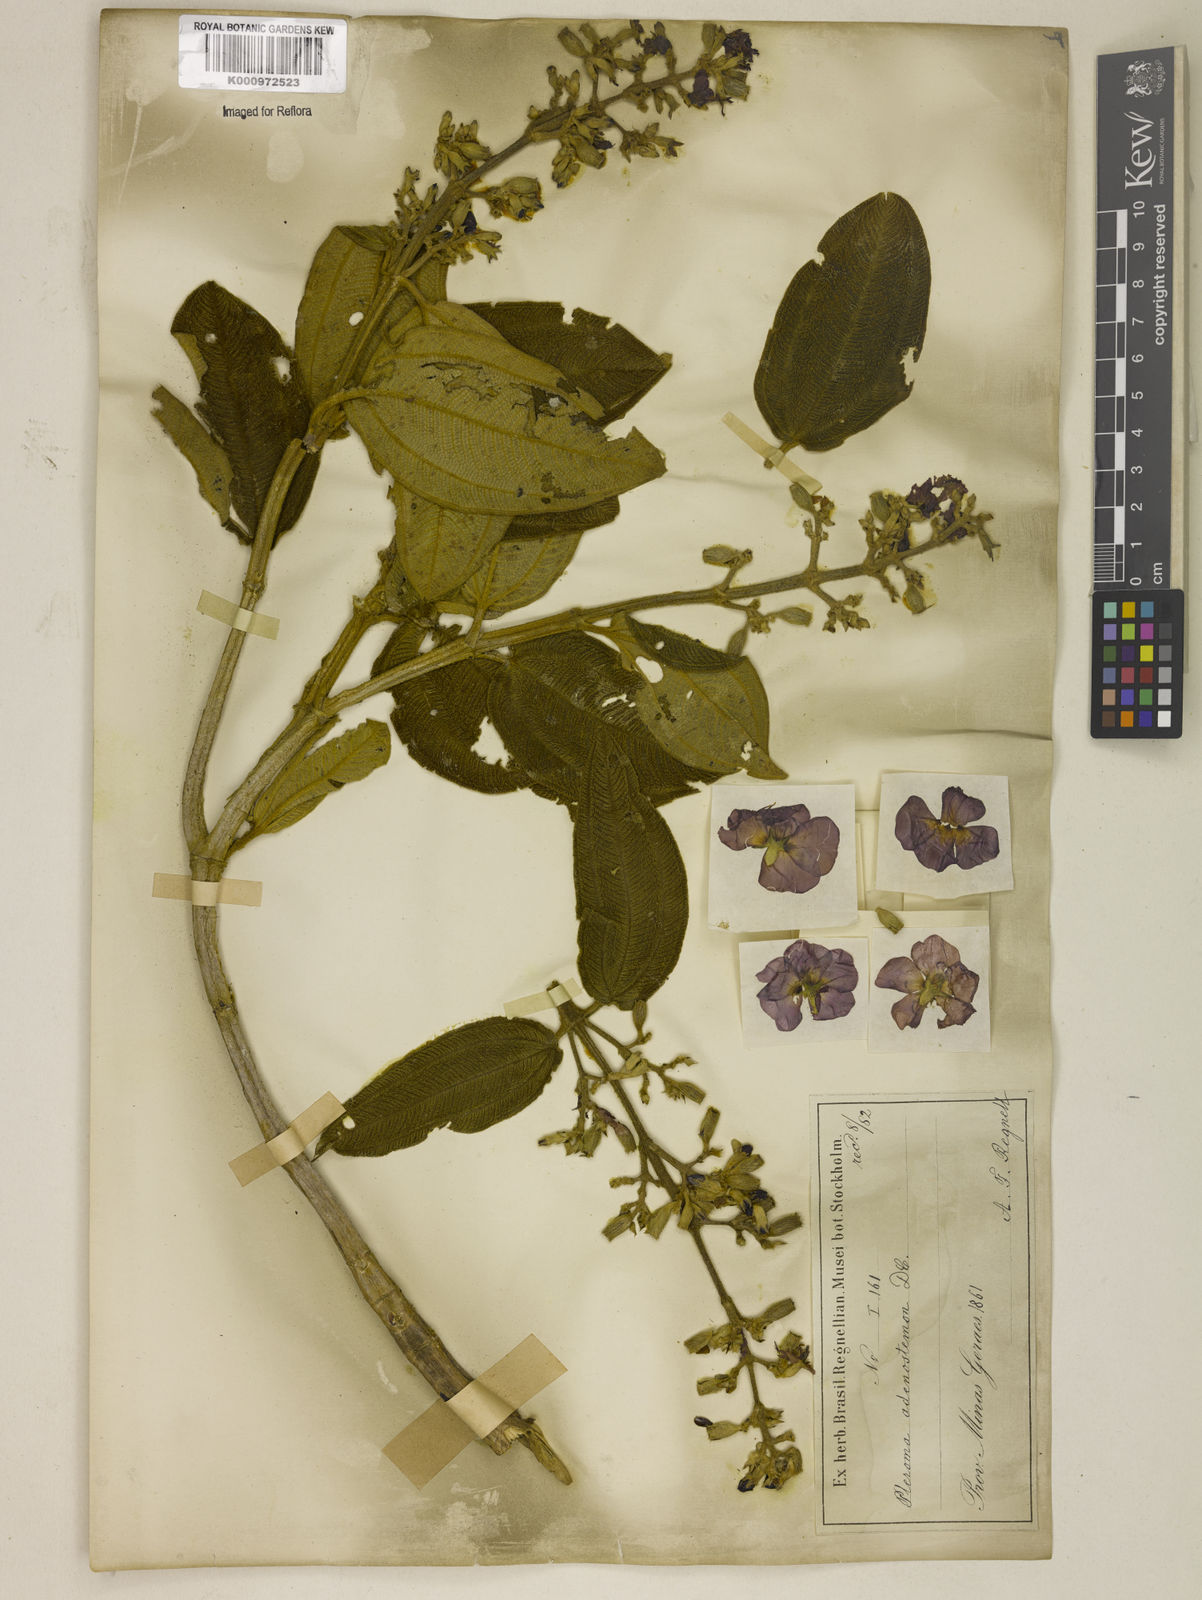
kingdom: Plantae
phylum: Tracheophyta
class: Magnoliopsida
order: Myrtales
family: Melastomataceae
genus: Pleroma
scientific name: Pleroma heteromallum
